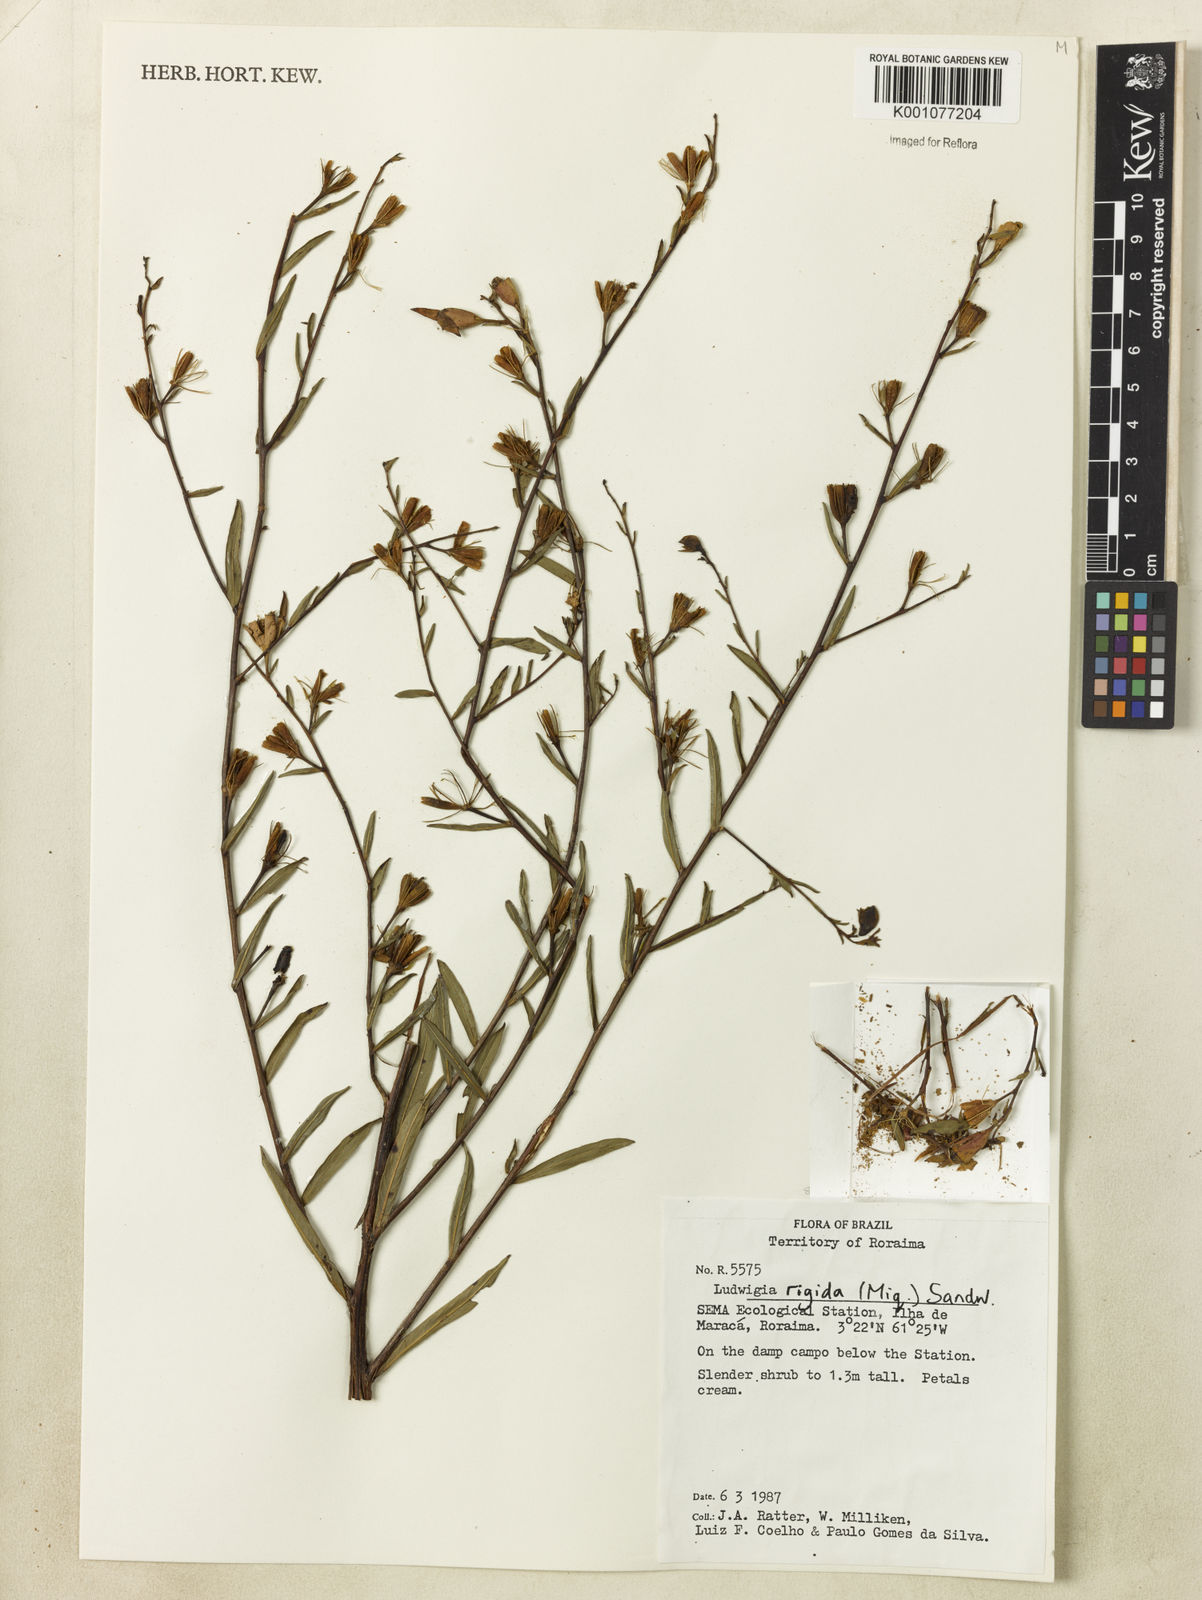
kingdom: Plantae
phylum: Tracheophyta
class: Magnoliopsida
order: Myrtales
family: Onagraceae
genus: Ludwigia
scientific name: Ludwigia rigida
